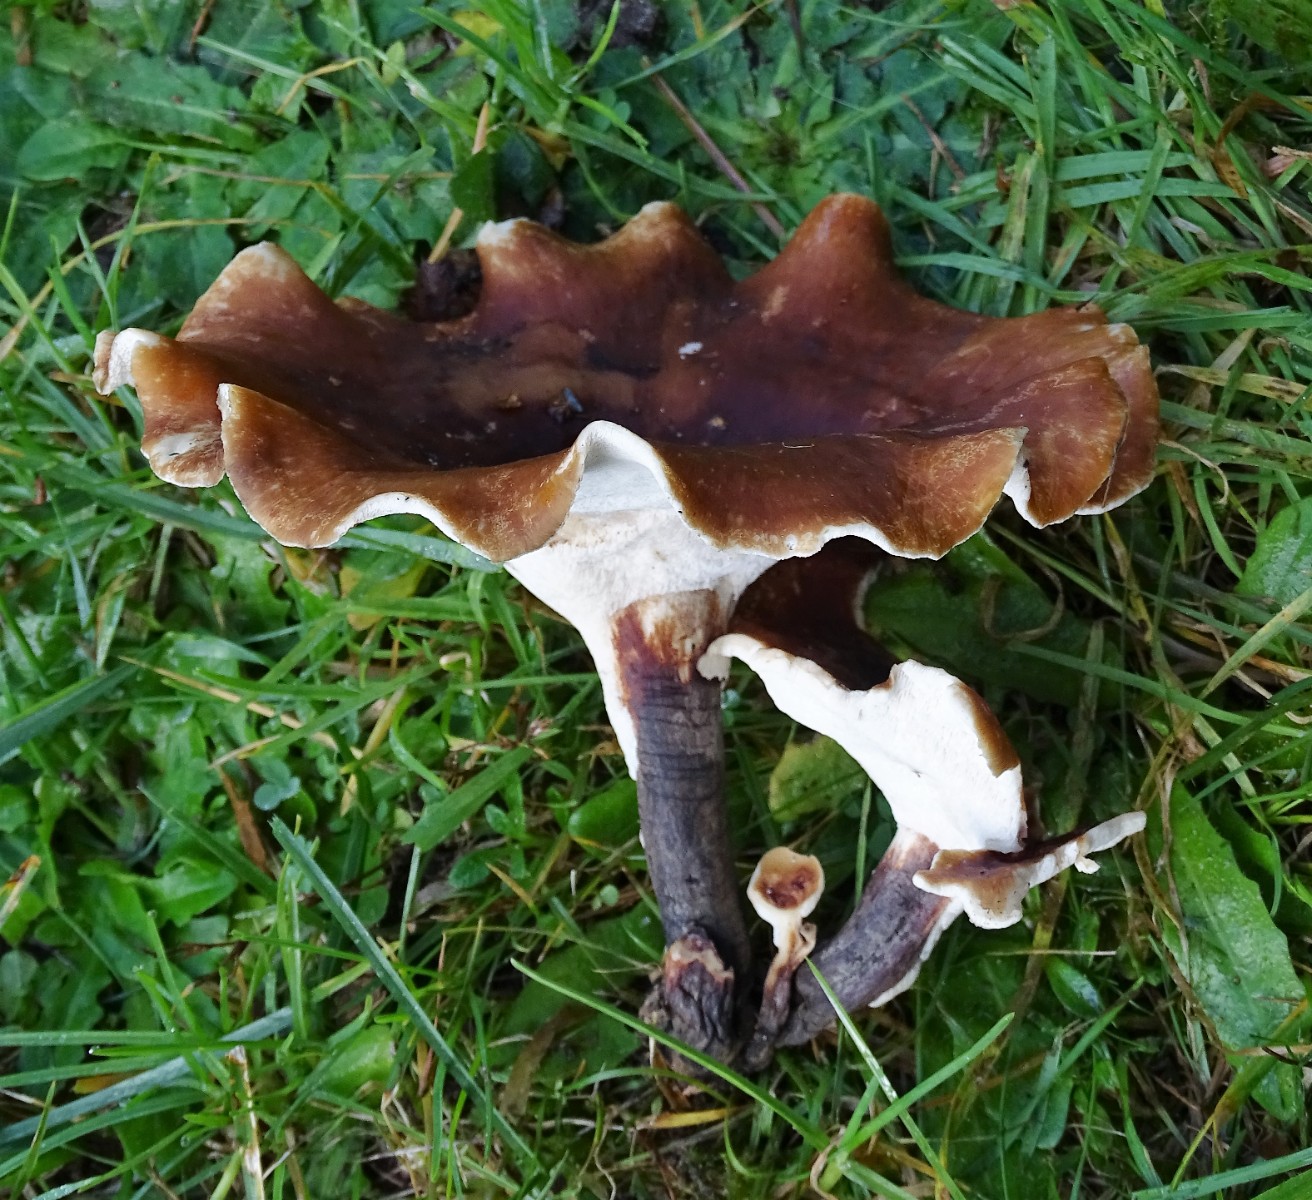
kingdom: Fungi
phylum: Basidiomycota
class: Agaricomycetes
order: Polyporales
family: Polyporaceae
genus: Picipes
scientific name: Picipes badius
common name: kastaniebrun stilkporesvamp
